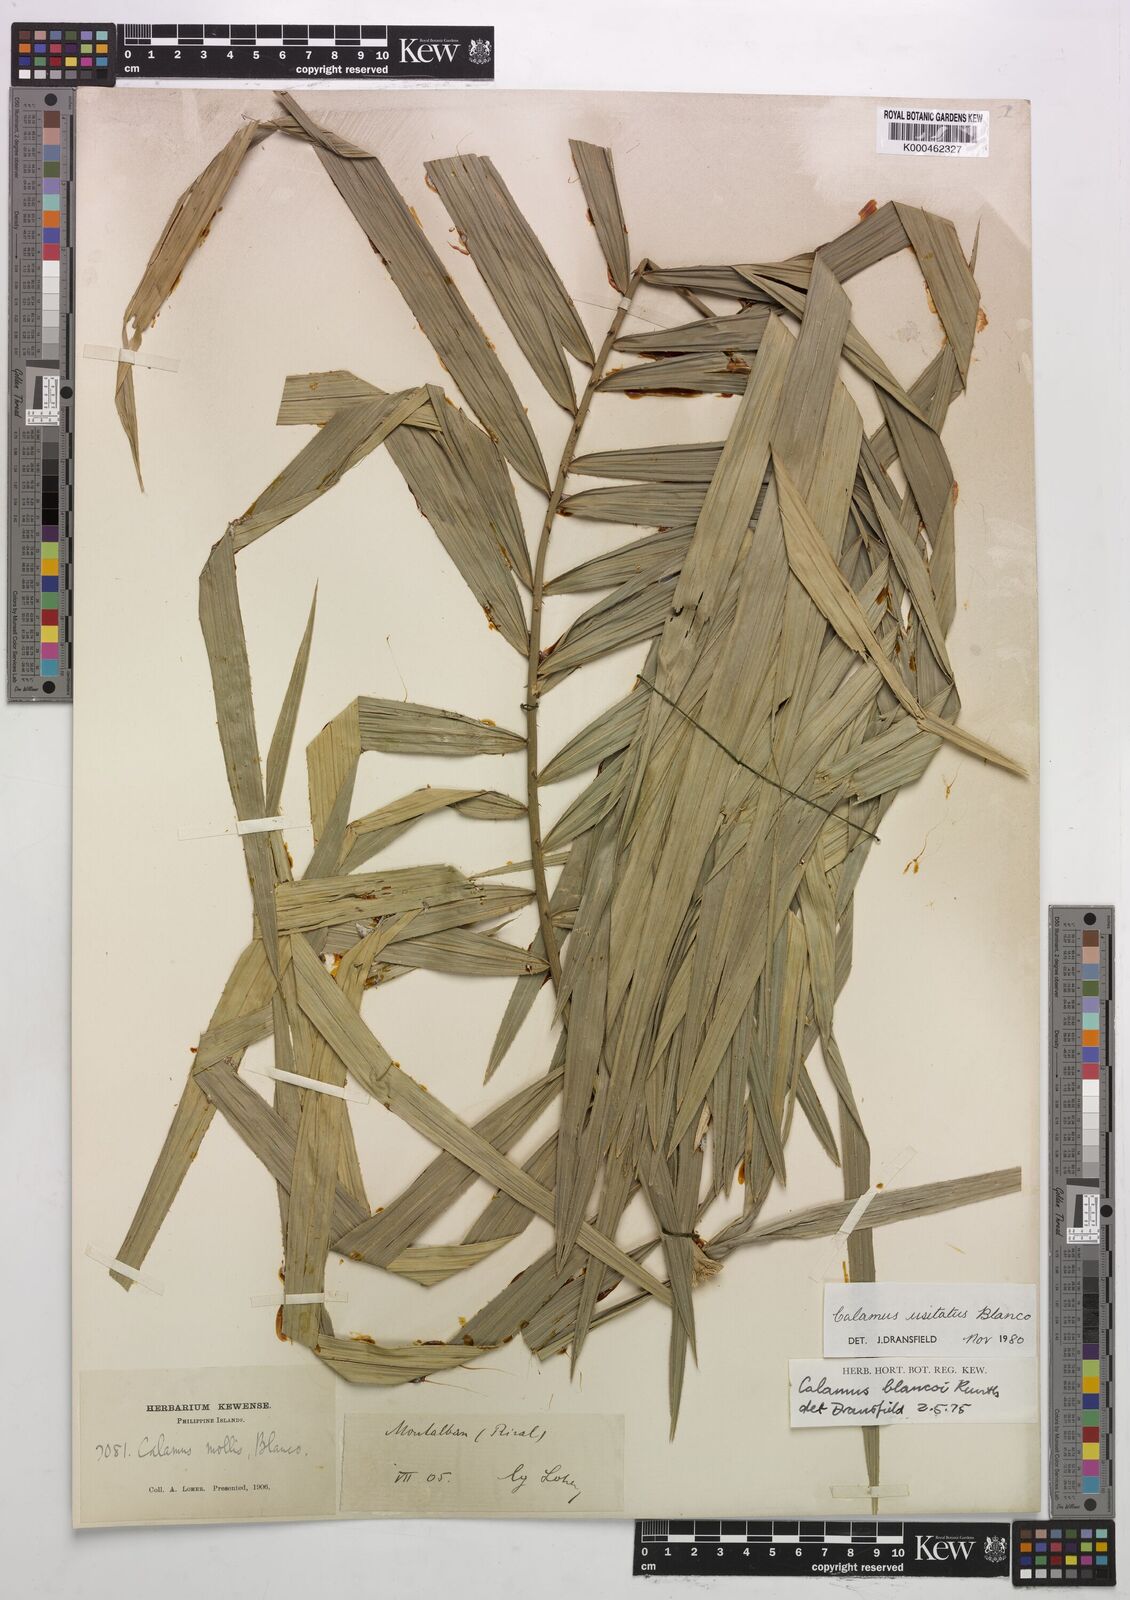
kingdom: Plantae
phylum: Tracheophyta
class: Liliopsida
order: Arecales
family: Arecaceae
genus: Calamus
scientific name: Calamus usitatus
